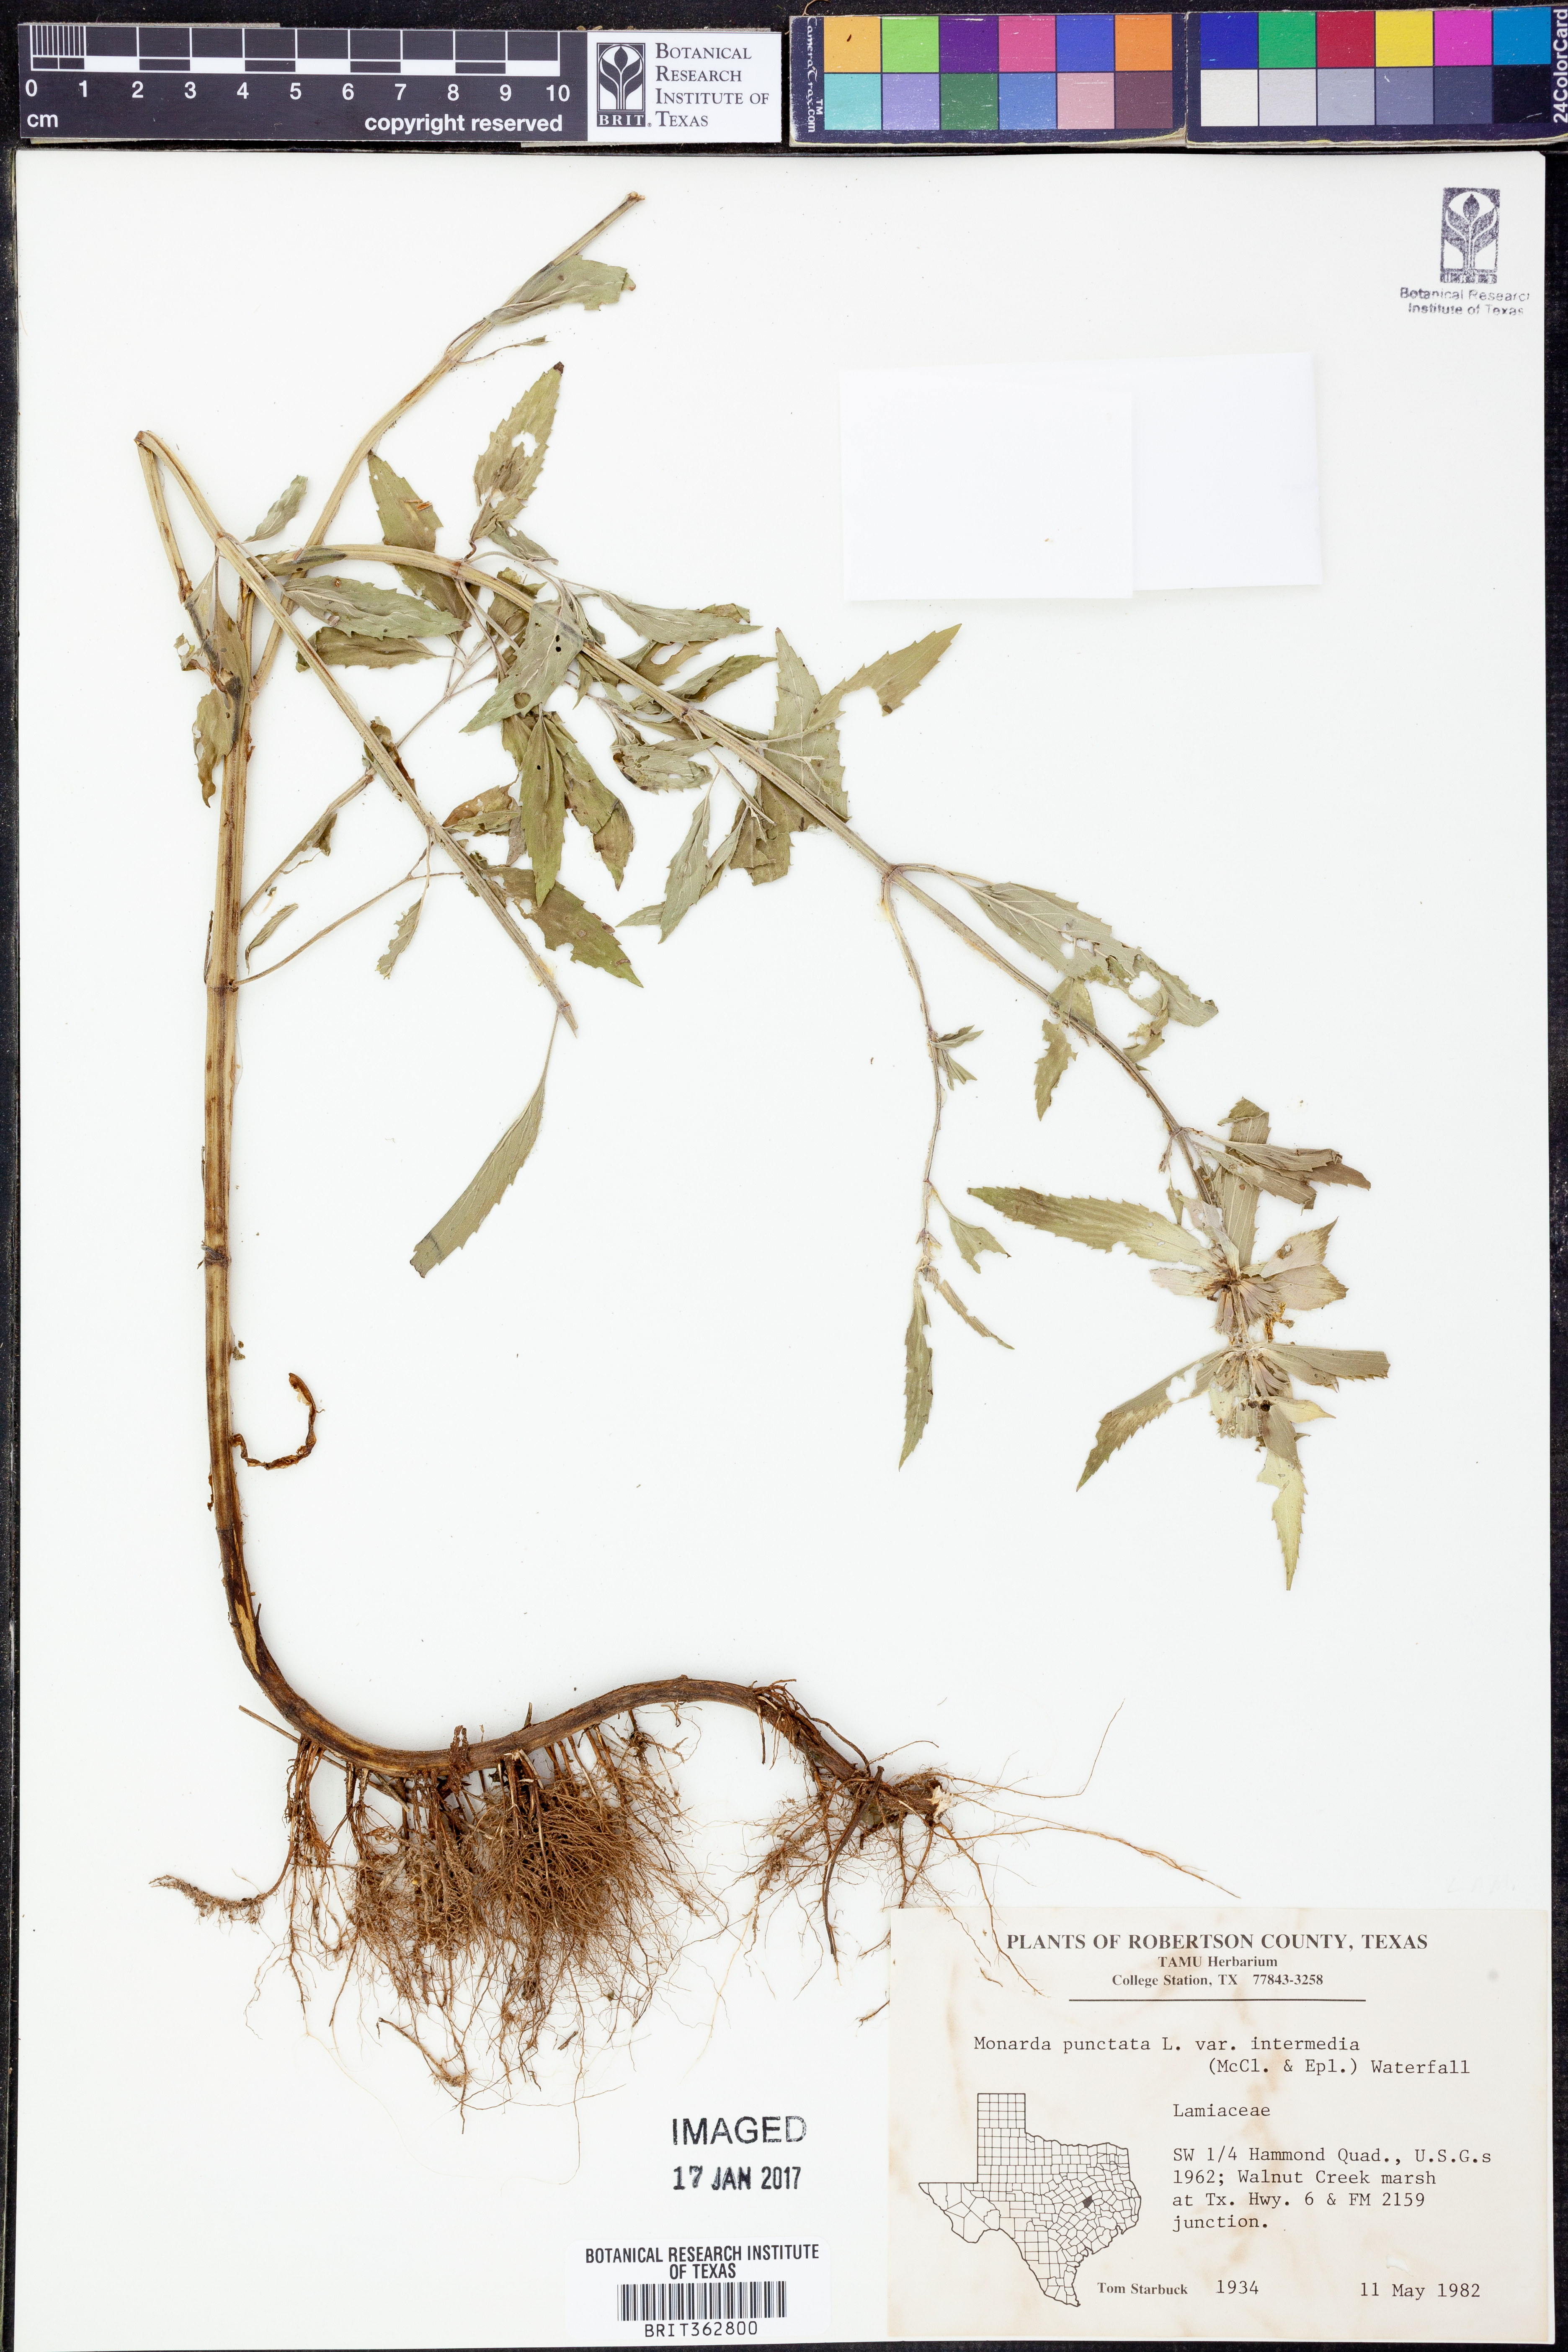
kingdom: Plantae
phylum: Tracheophyta
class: Magnoliopsida
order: Lamiales
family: Lamiaceae
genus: Monarda
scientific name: Monarda punctata
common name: Dotted monarda
